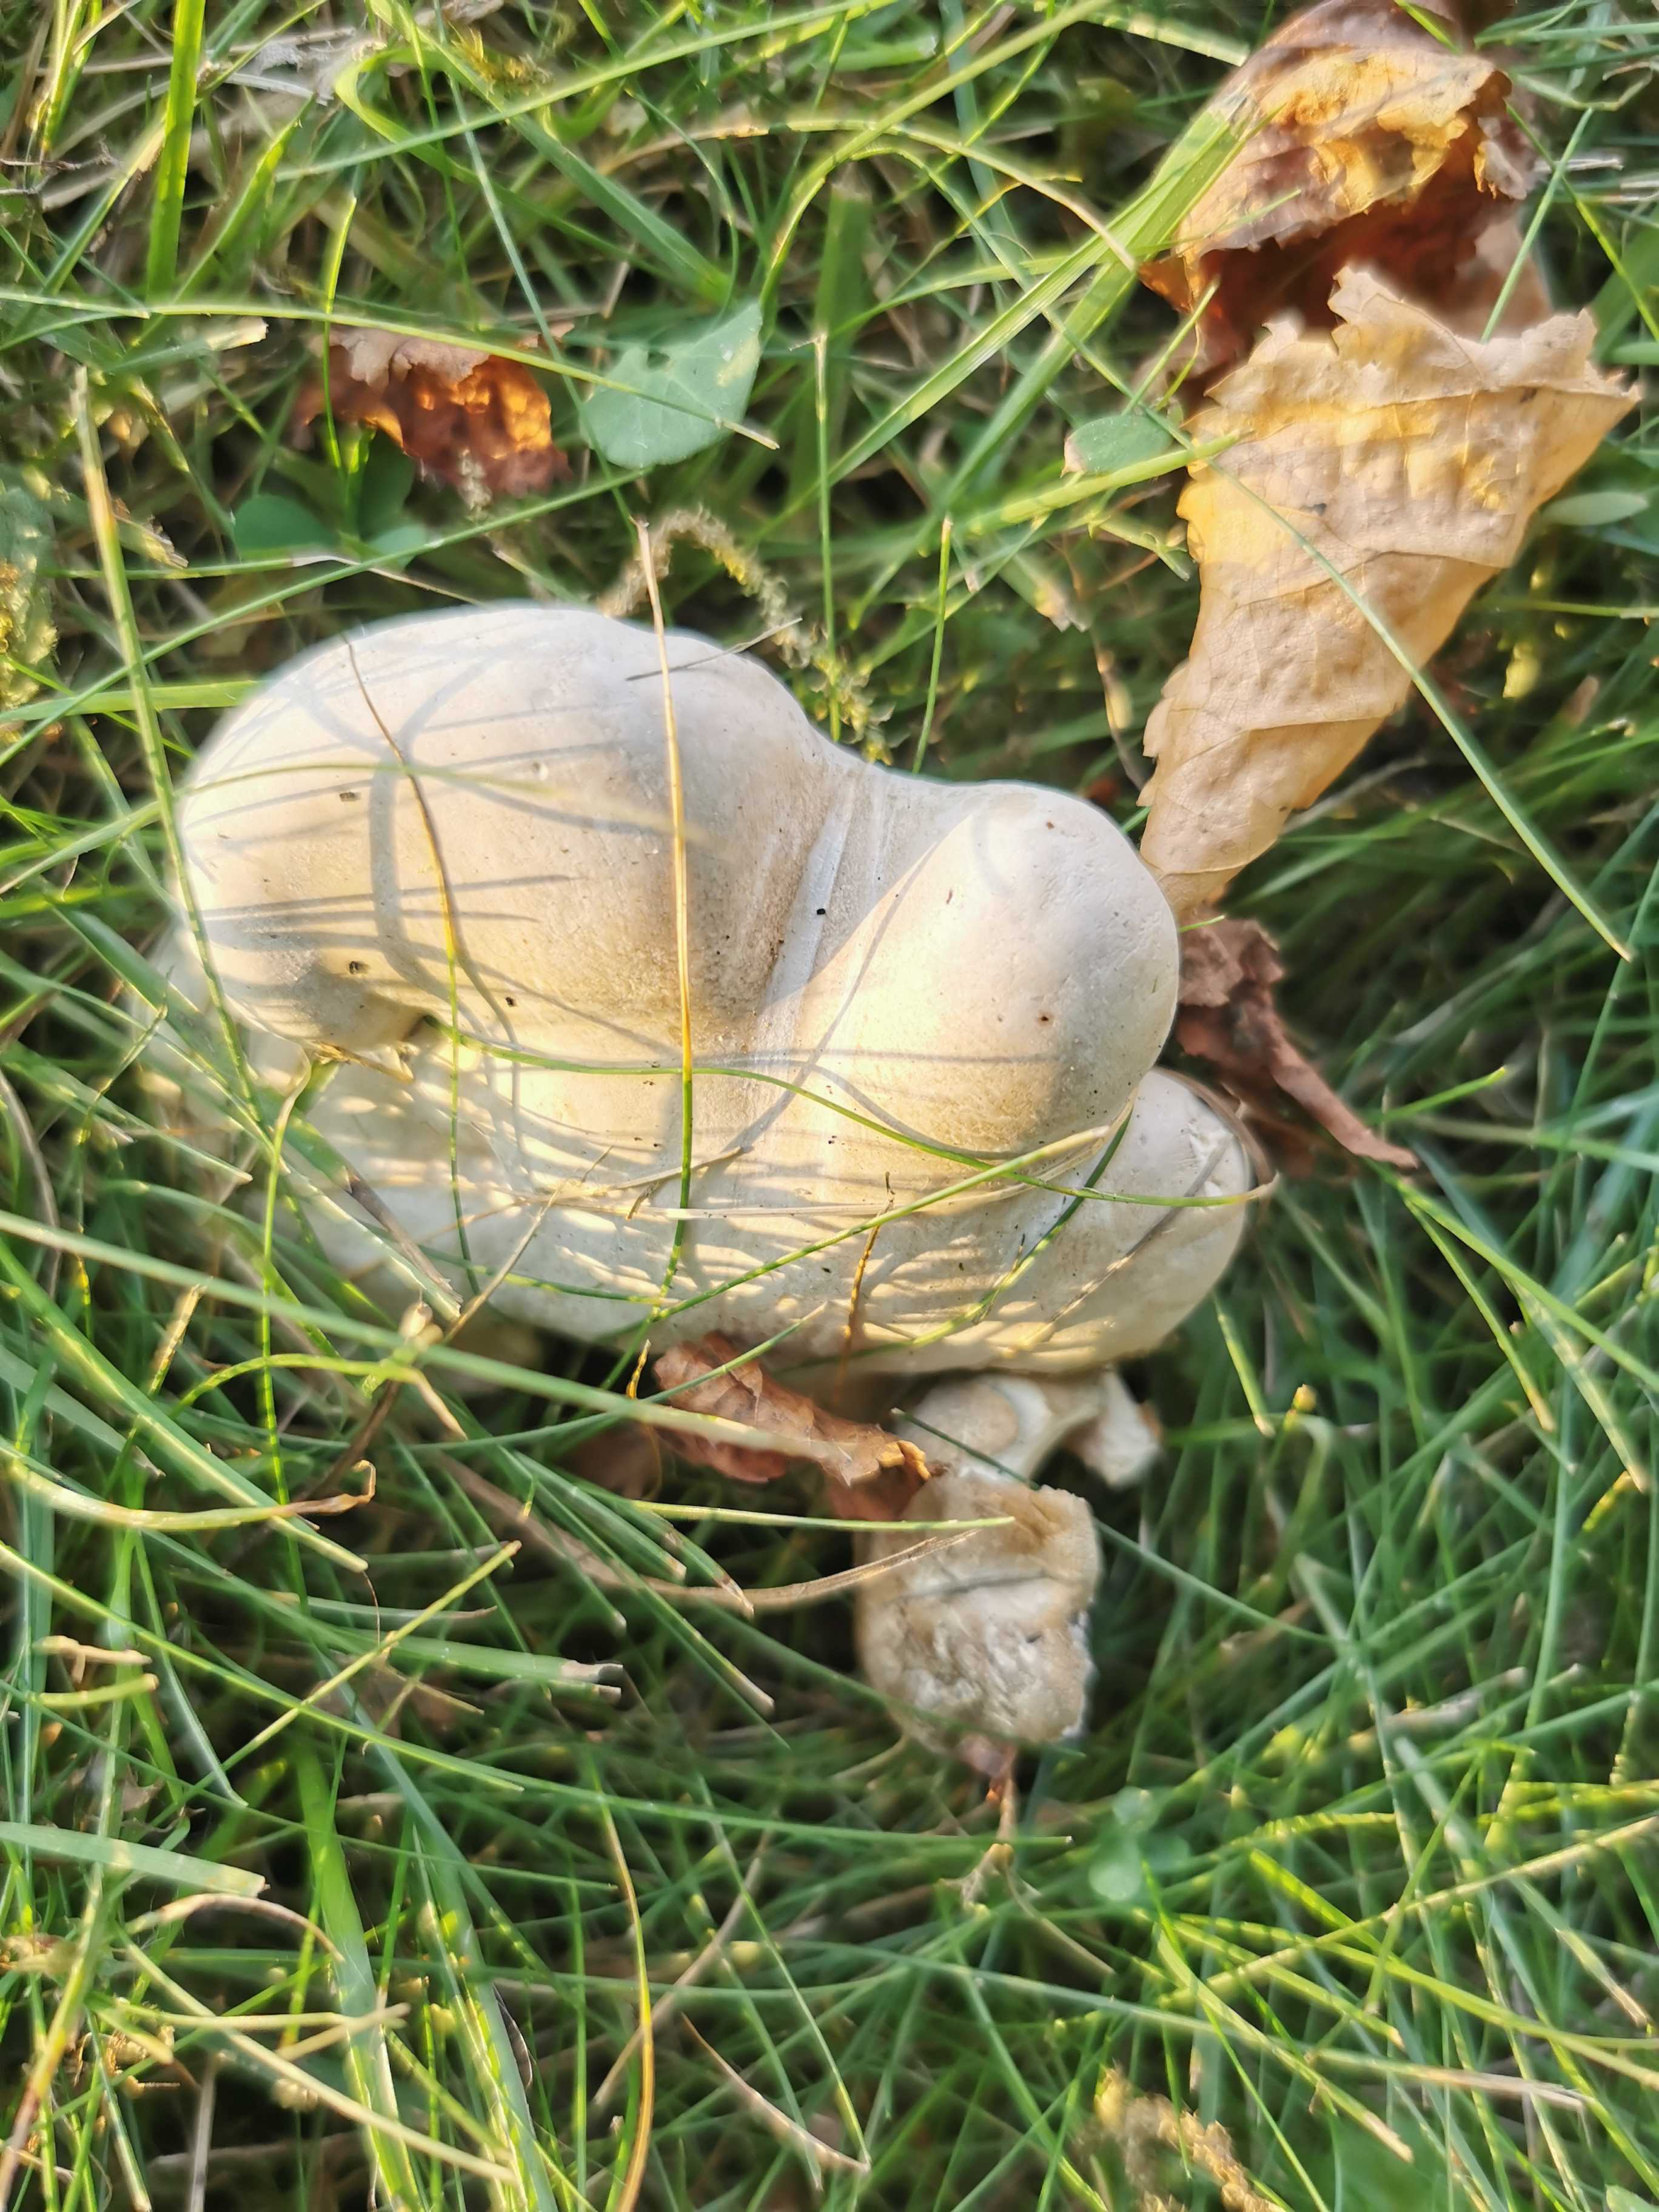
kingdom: Fungi
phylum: Basidiomycota
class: Agaricomycetes
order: Agaricales
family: Entolomataceae
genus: Clitopilus
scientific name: Clitopilus prunulus
